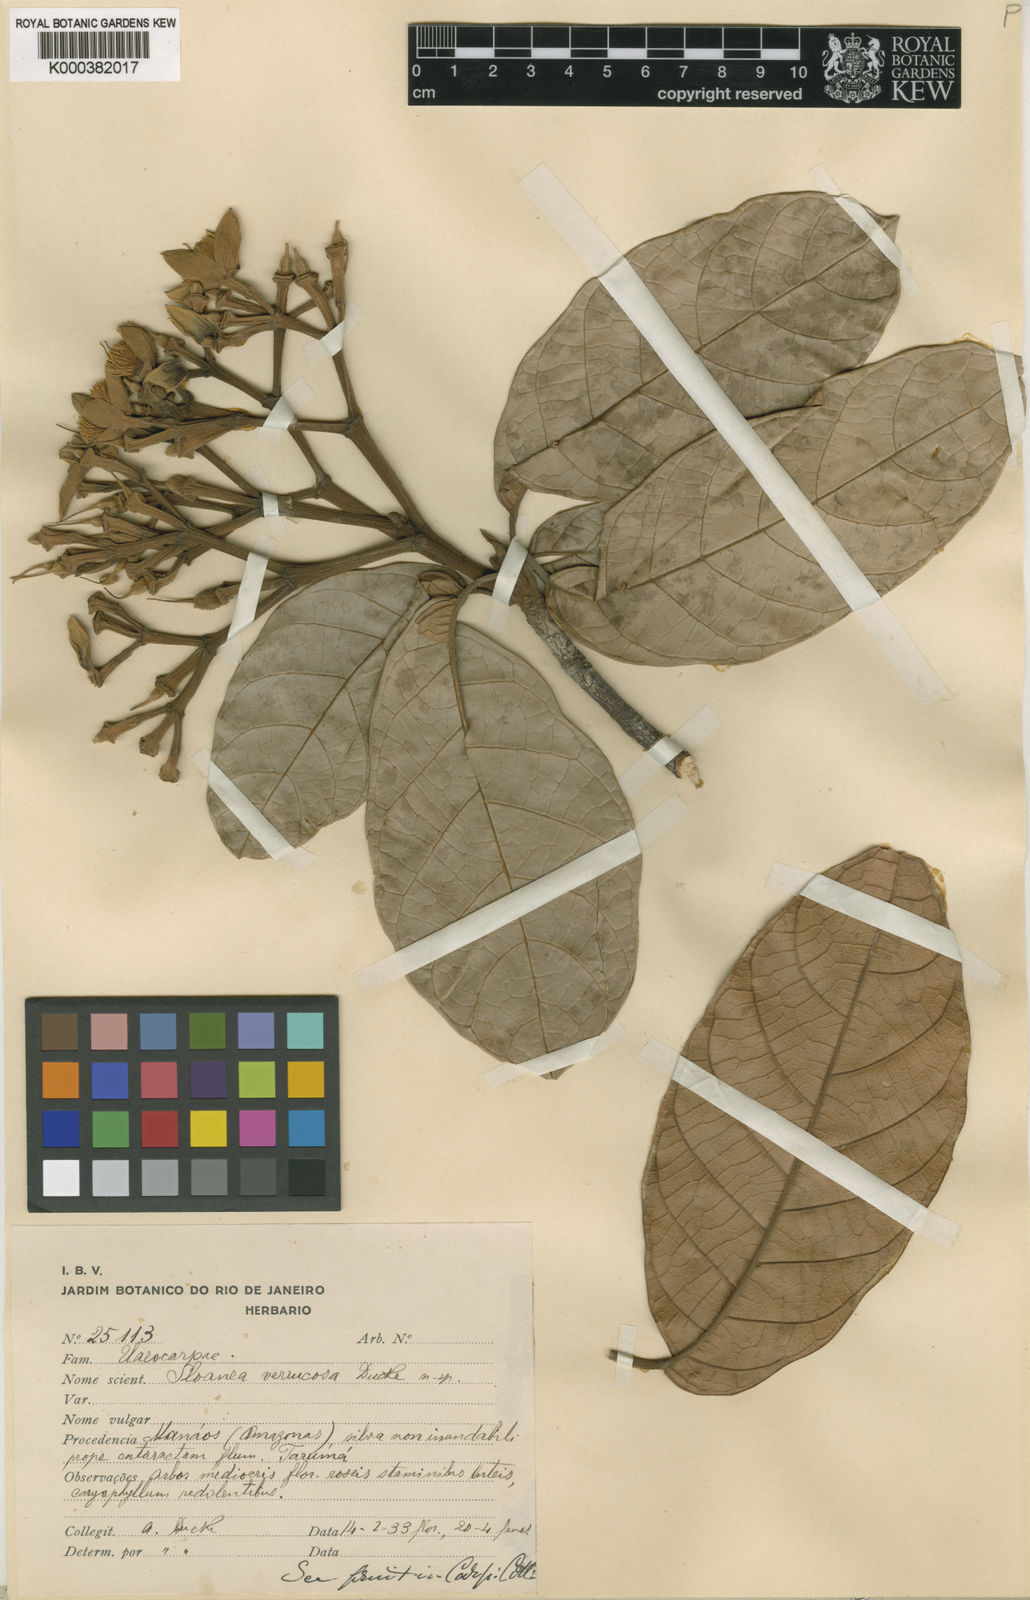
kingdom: Plantae
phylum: Tracheophyta
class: Magnoliopsida
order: Oxalidales
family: Elaeocarpaceae
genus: Sloanea
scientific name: Sloanea schomburgkii
